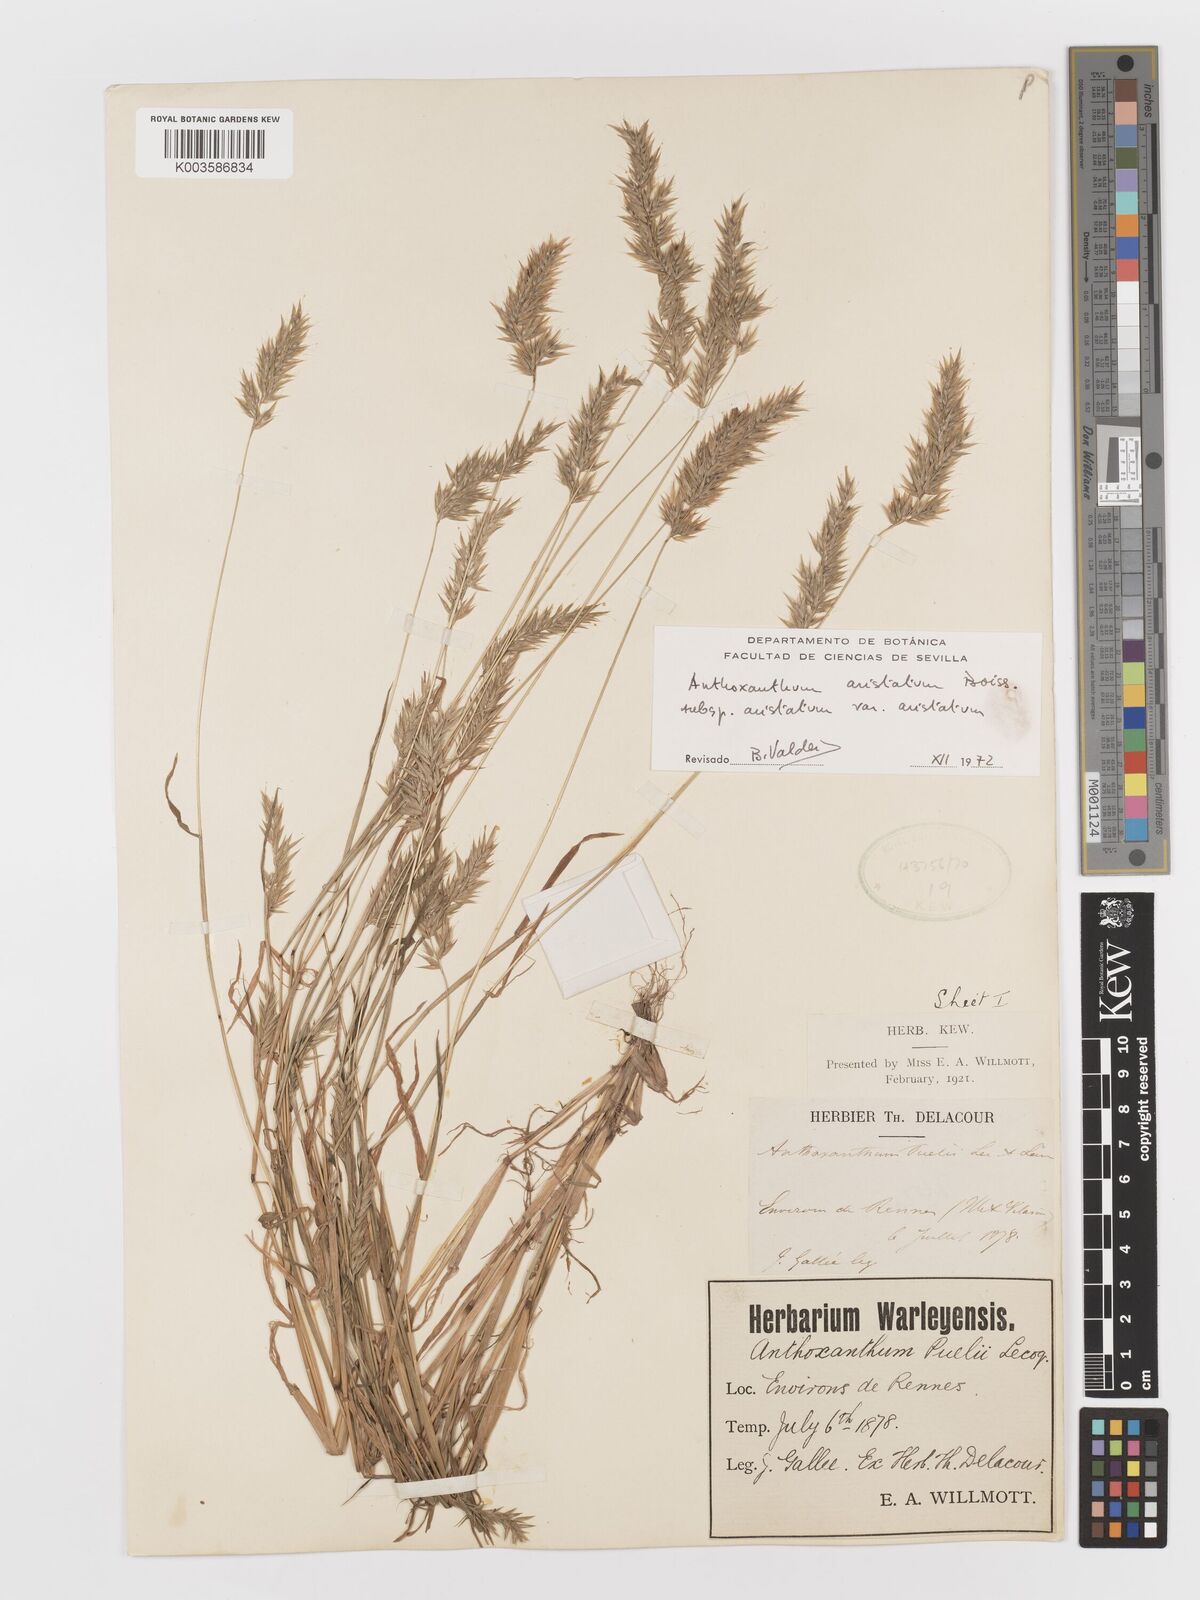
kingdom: Plantae
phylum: Tracheophyta
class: Liliopsida
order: Poales
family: Poaceae
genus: Anthoxanthum
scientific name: Anthoxanthum
